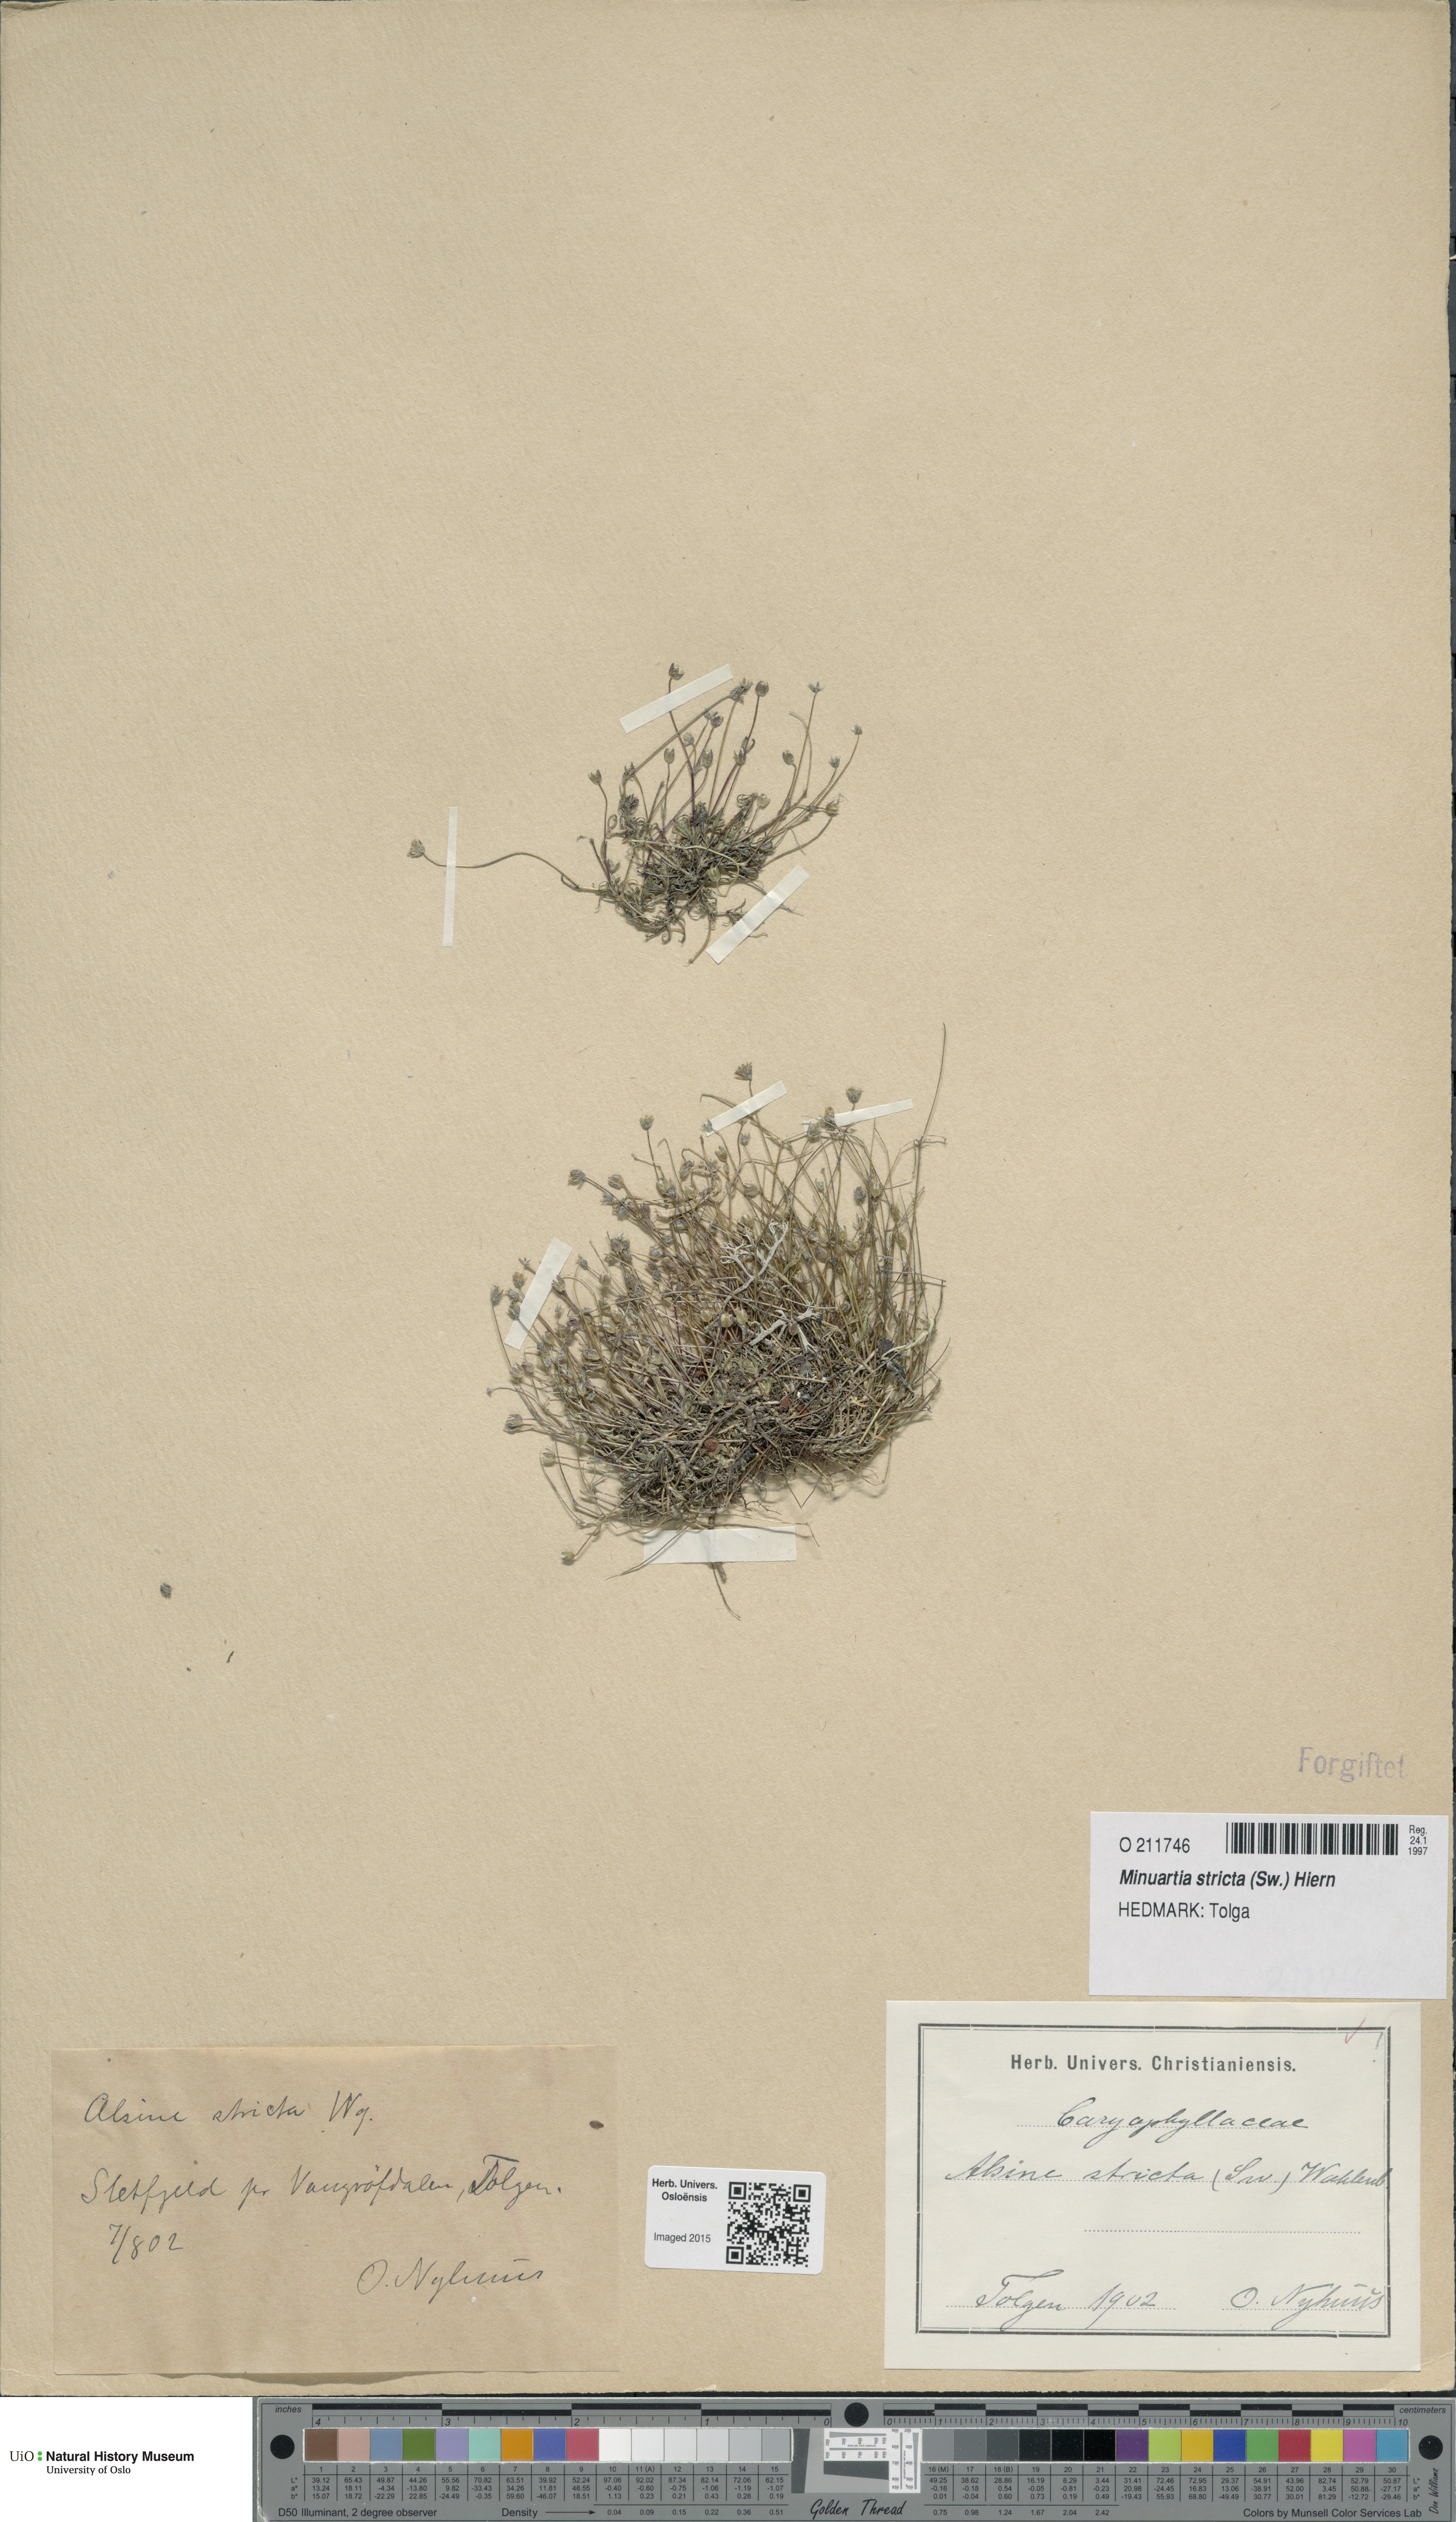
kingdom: Plantae
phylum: Tracheophyta
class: Magnoliopsida
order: Caryophyllales
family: Caryophyllaceae
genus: Sabulina
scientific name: Sabulina stricta
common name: Bog sandwort
